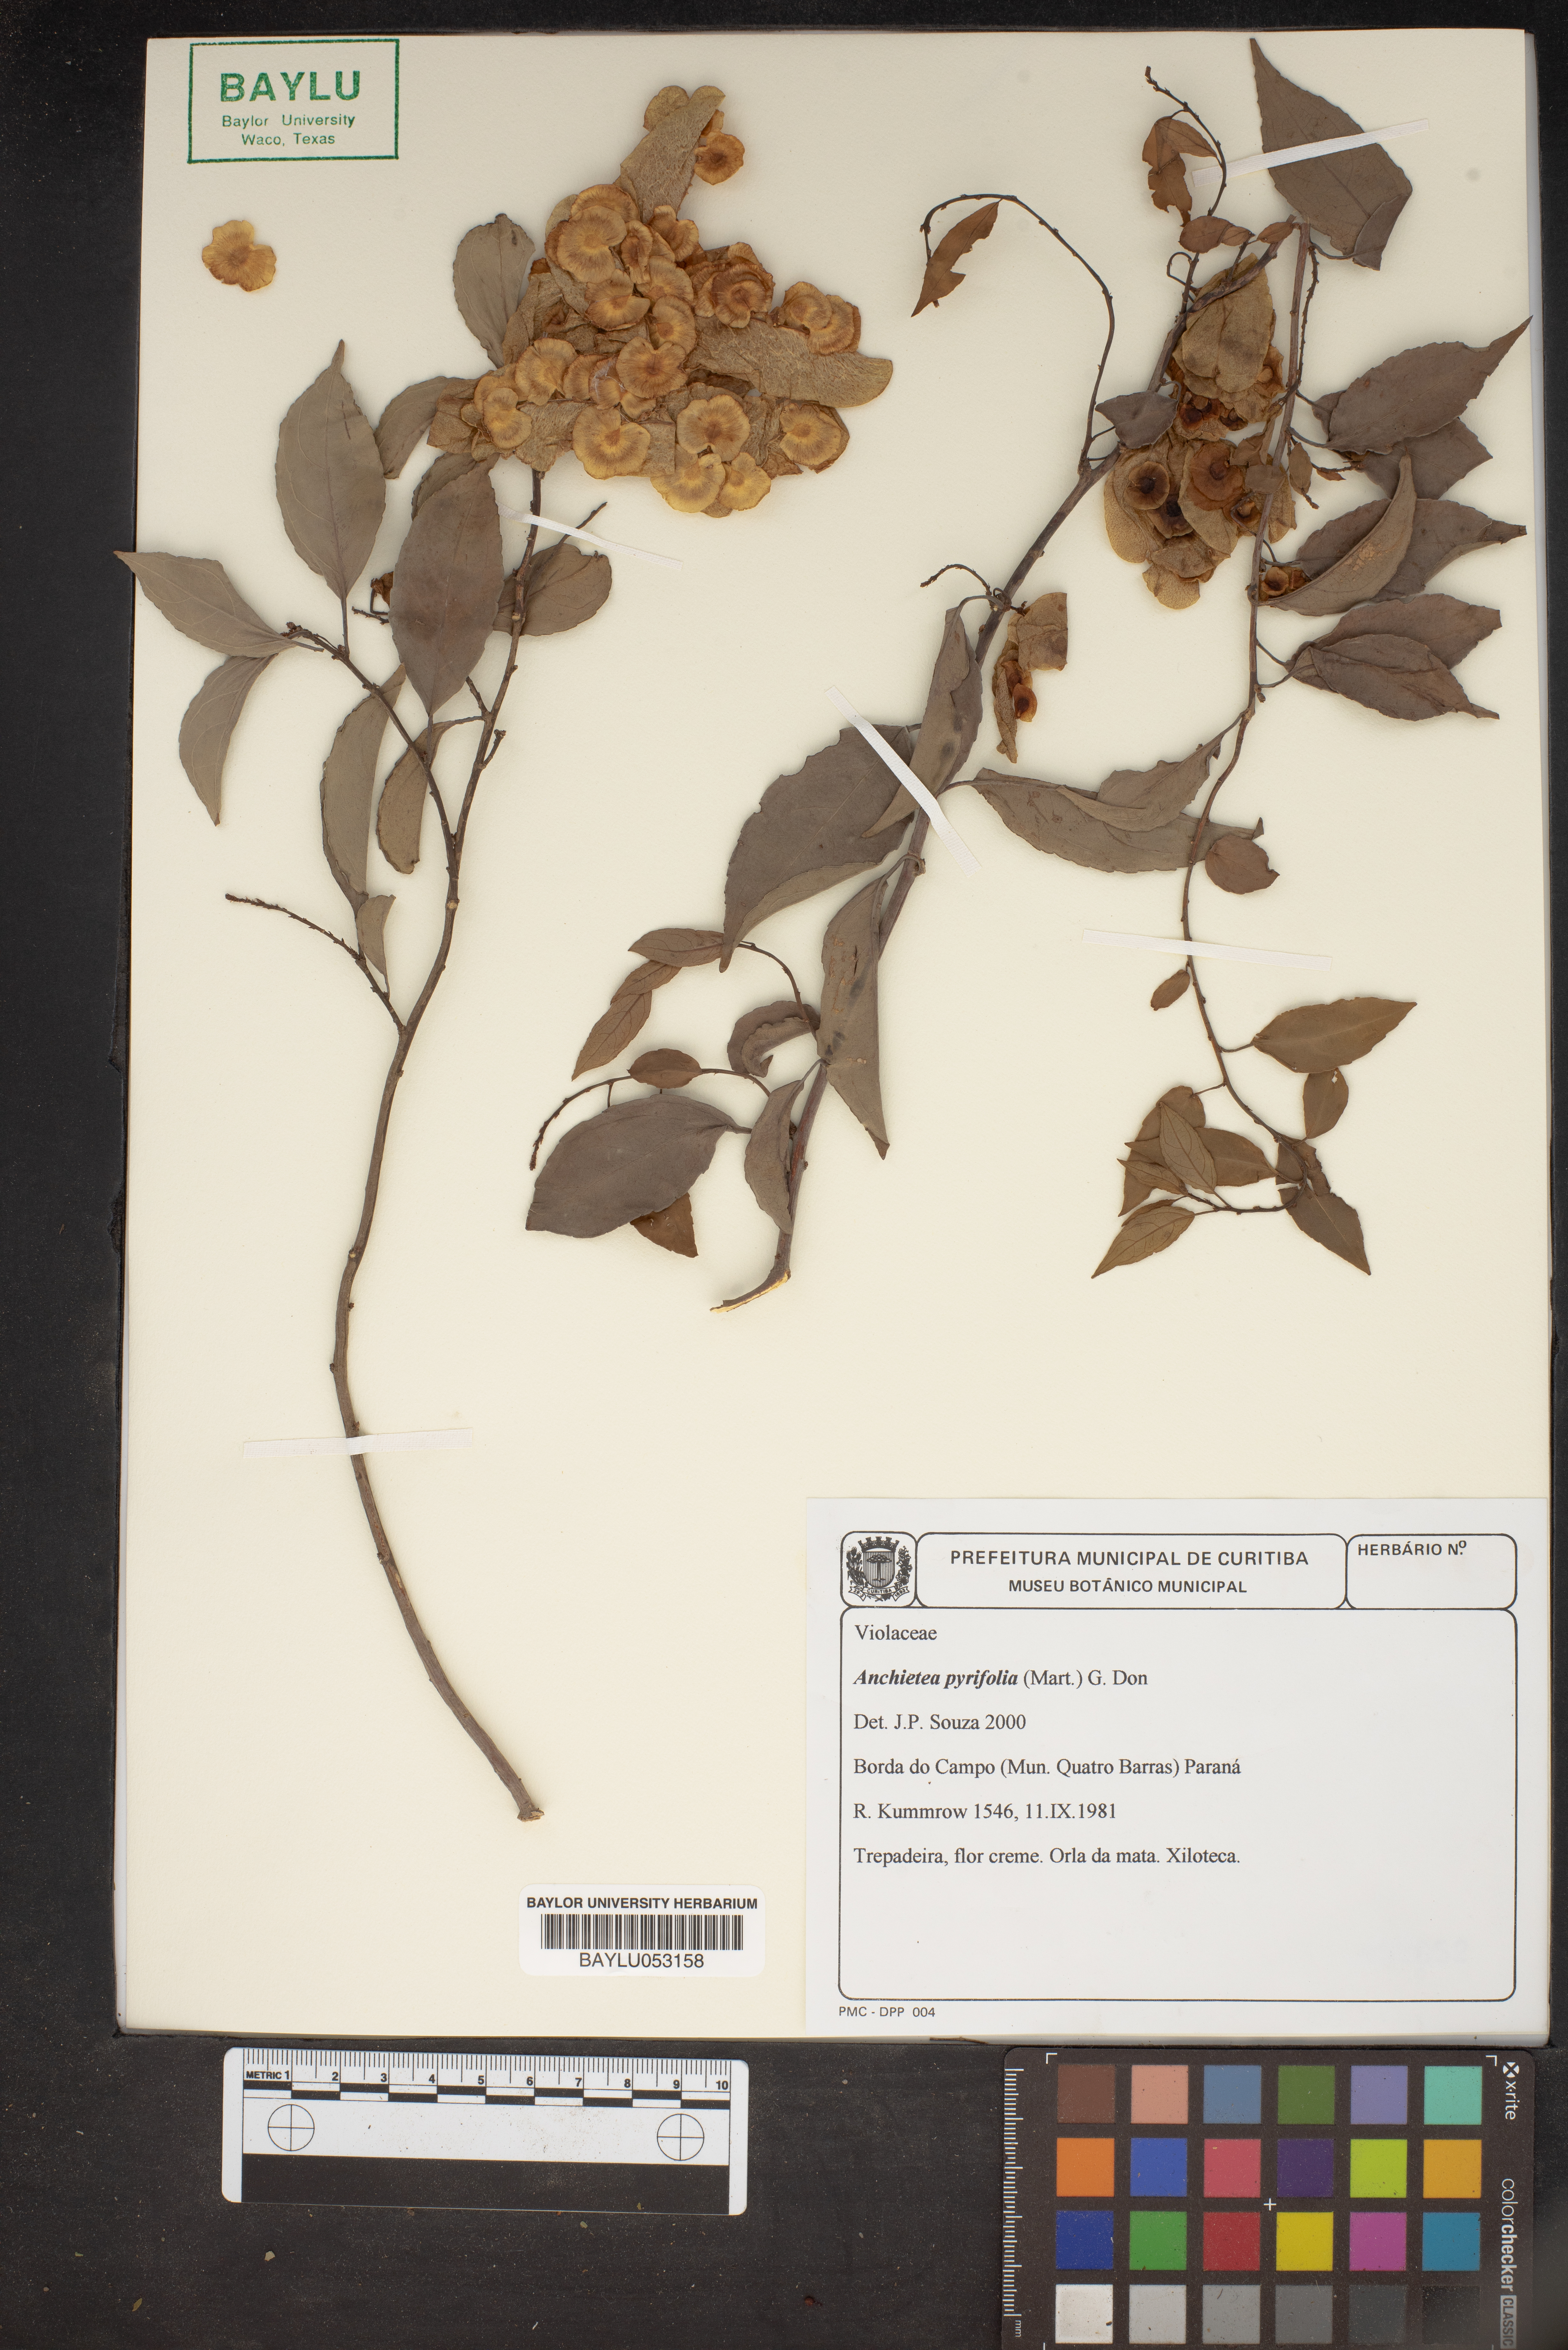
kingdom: Plantae
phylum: Tracheophyta
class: Magnoliopsida
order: Malpighiales
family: Violaceae
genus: Anchietea
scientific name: Anchietea pyrifolia
